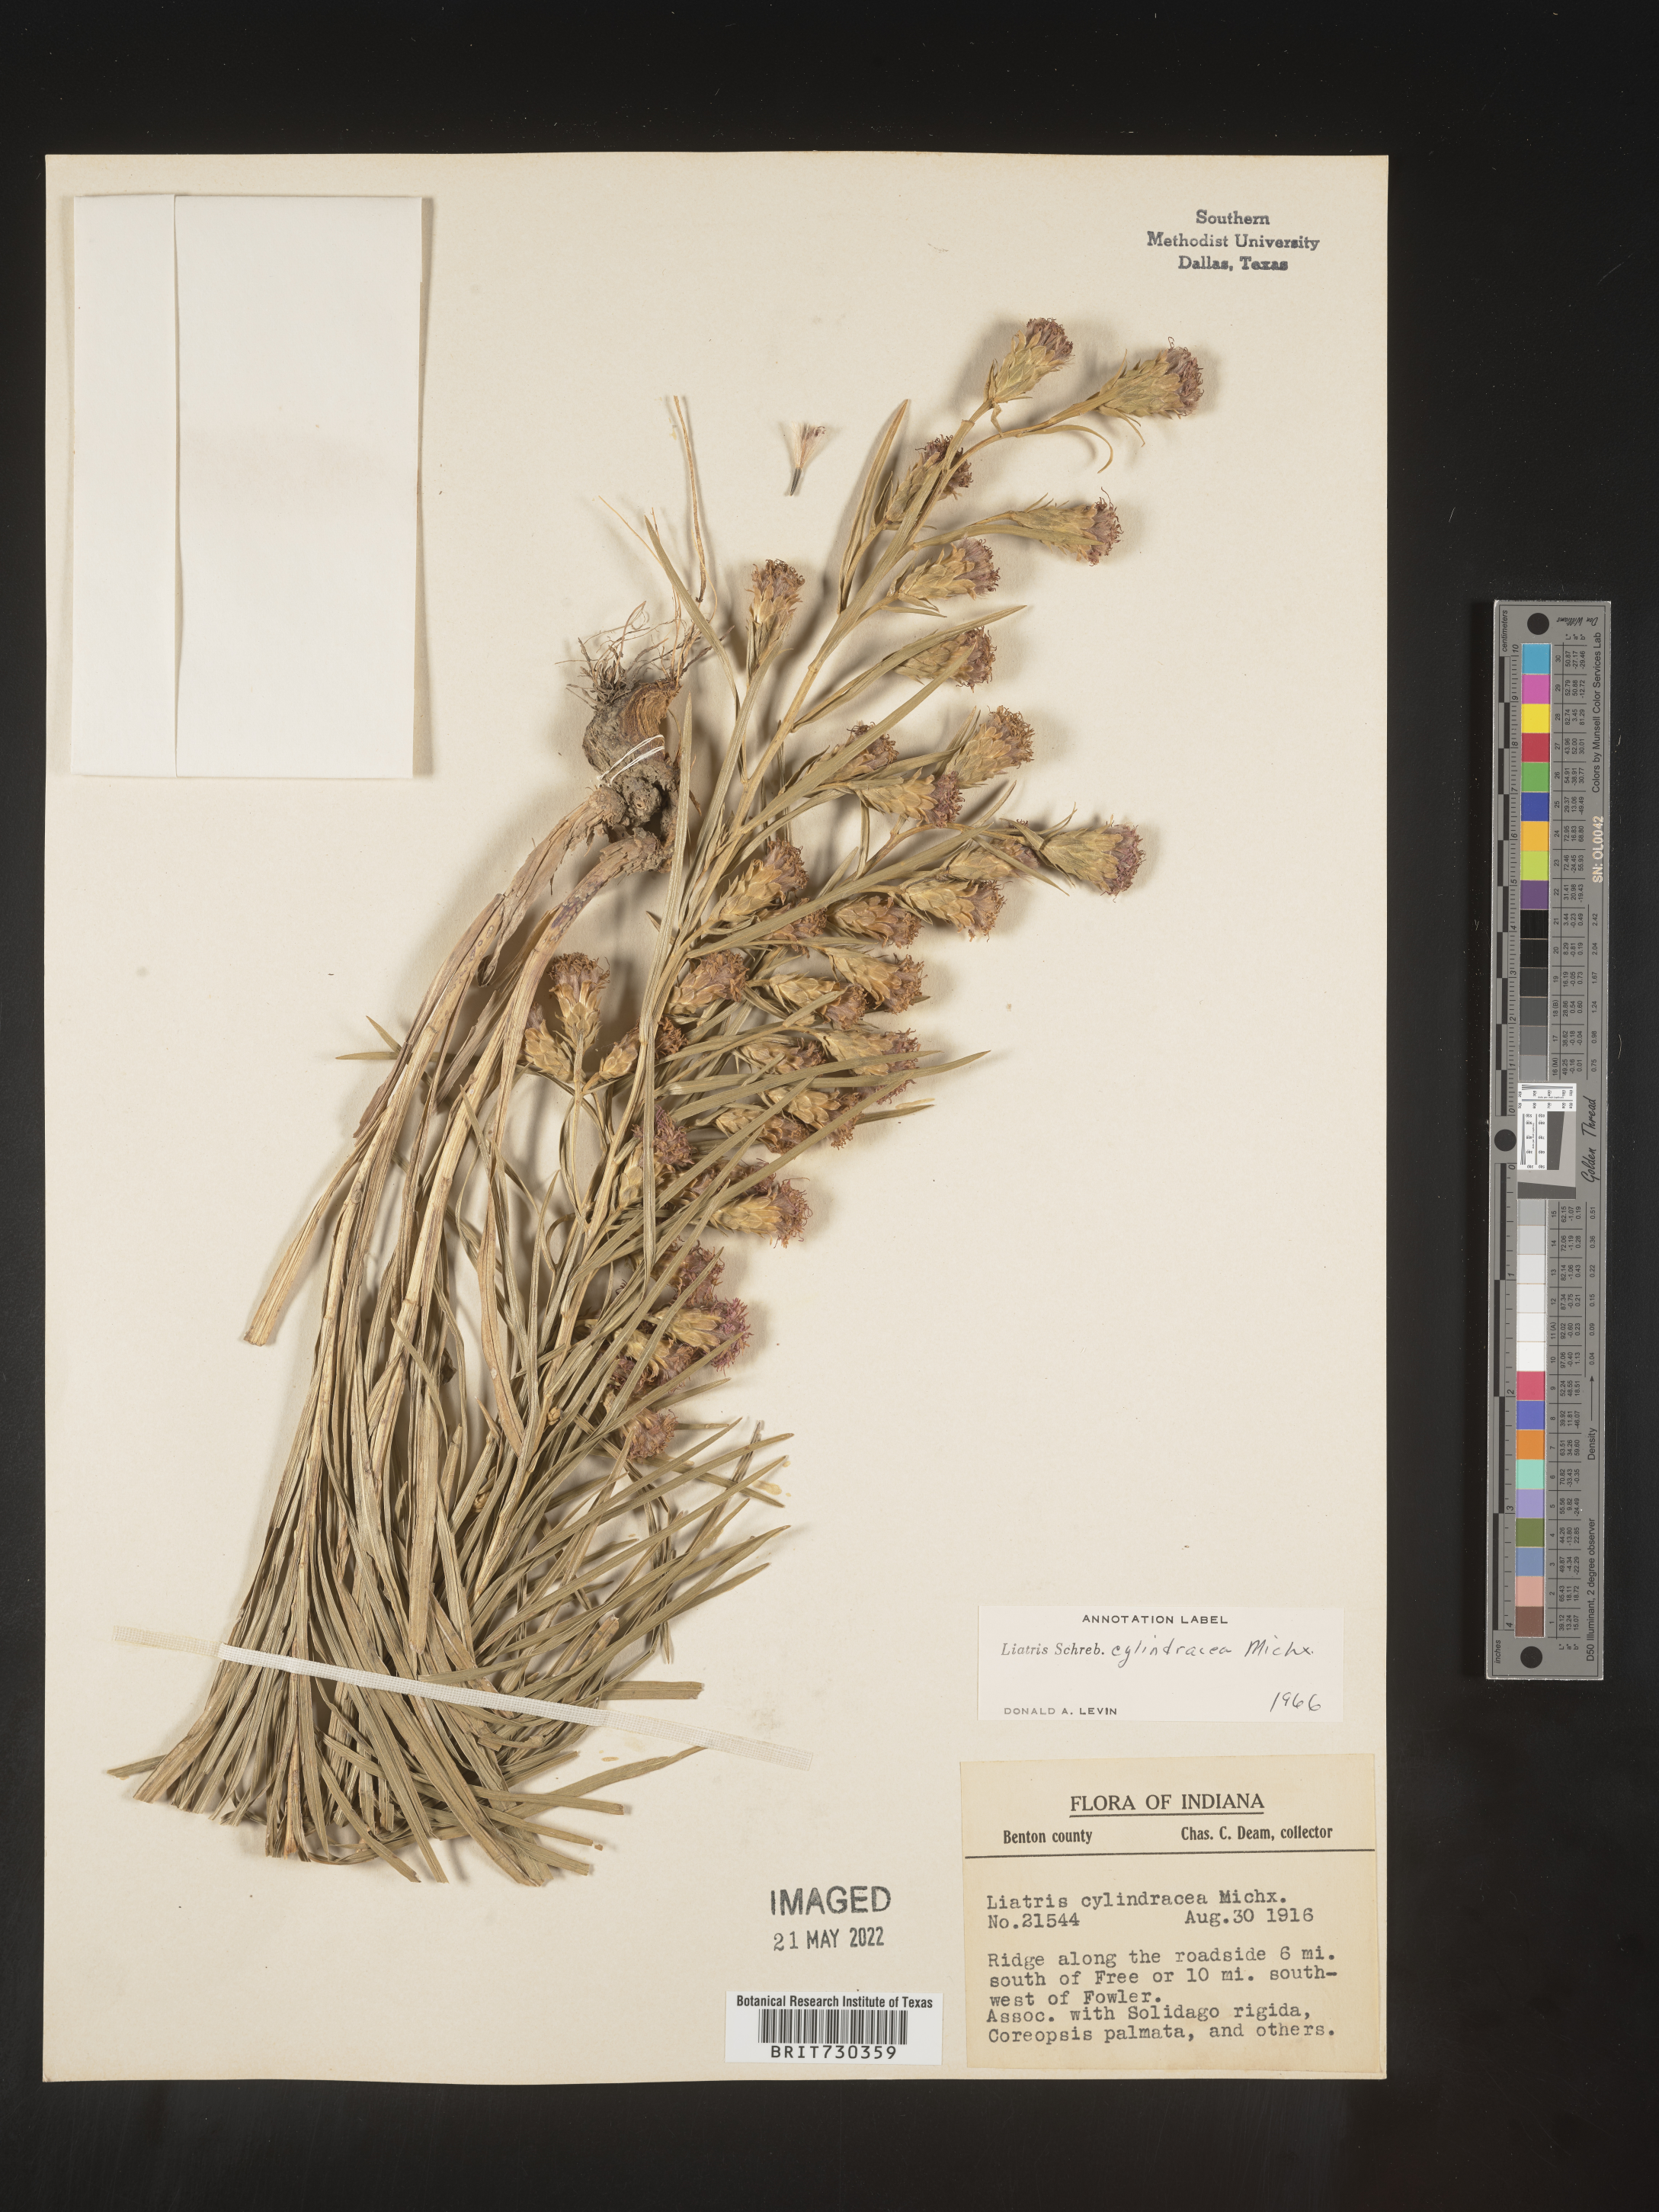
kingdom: Plantae
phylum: Tracheophyta
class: Magnoliopsida
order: Asterales
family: Asteraceae
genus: Liatris
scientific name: Liatris cylindracea
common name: Few-head blazingstar
